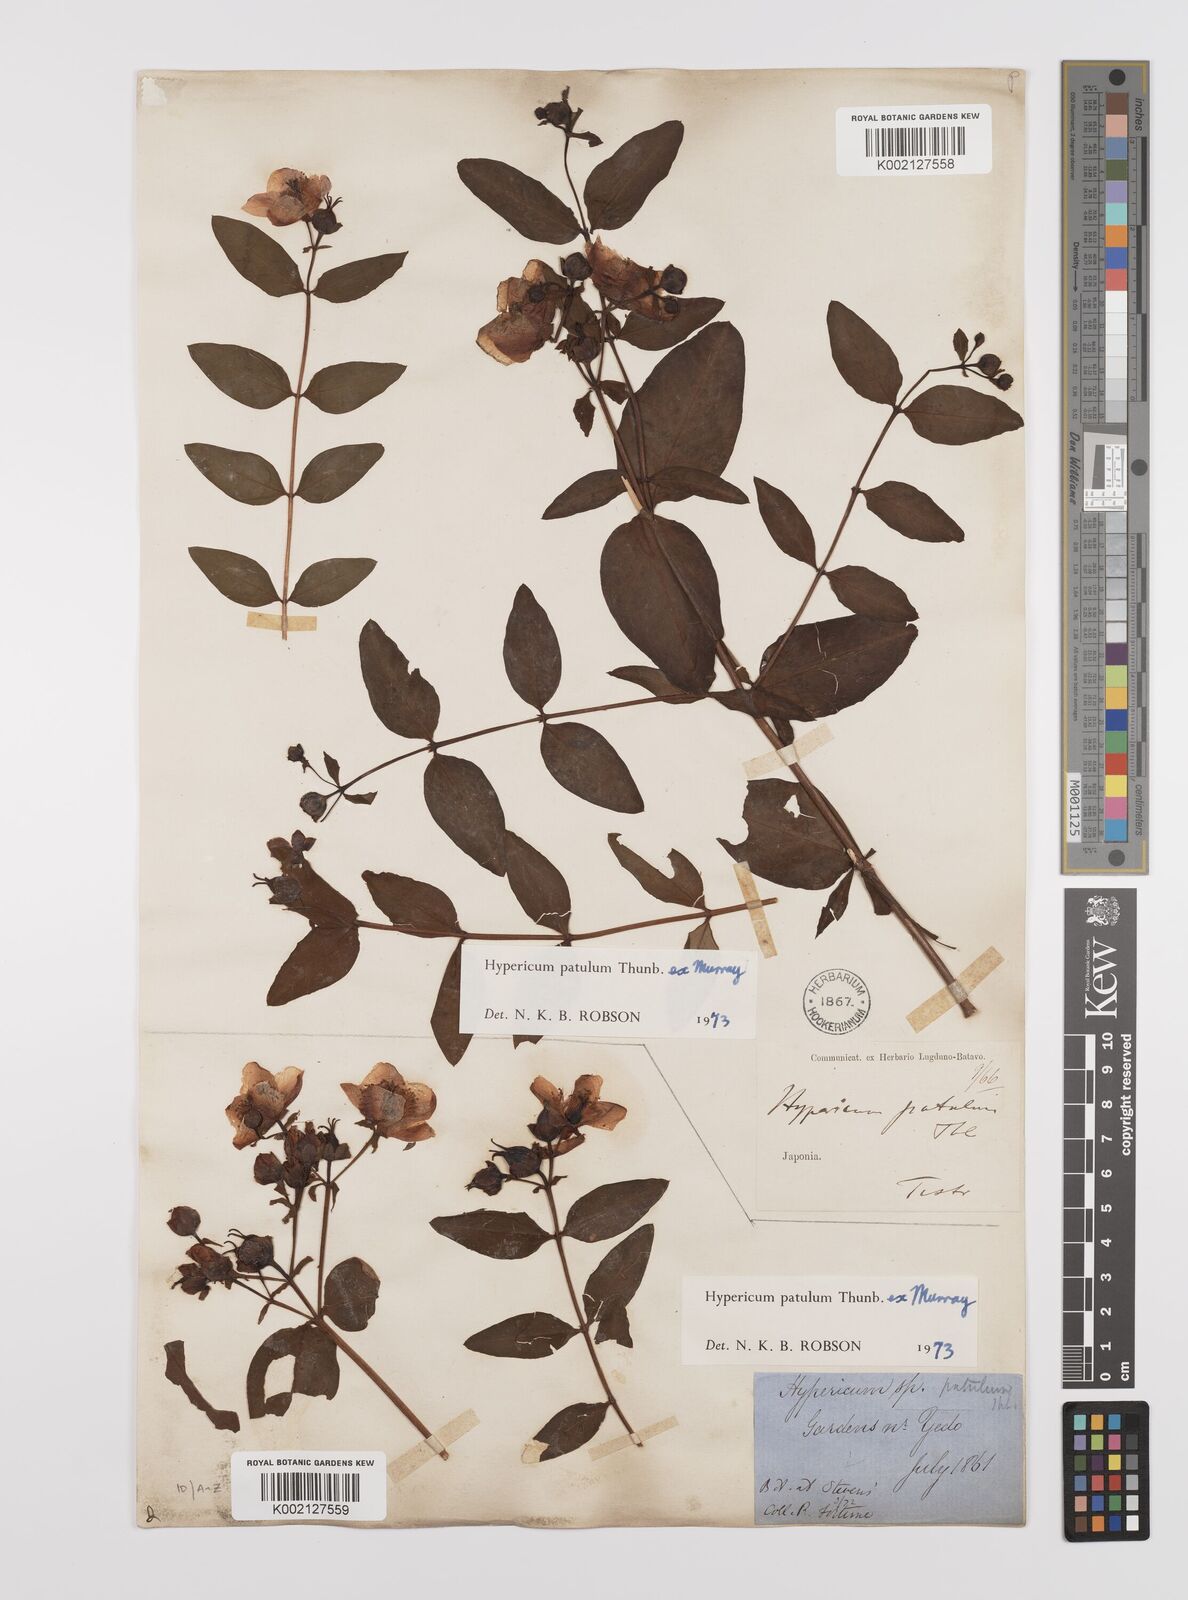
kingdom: Plantae
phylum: Tracheophyta
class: Magnoliopsida
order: Malpighiales
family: Hypericaceae
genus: Hypericum
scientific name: Hypericum patulum
